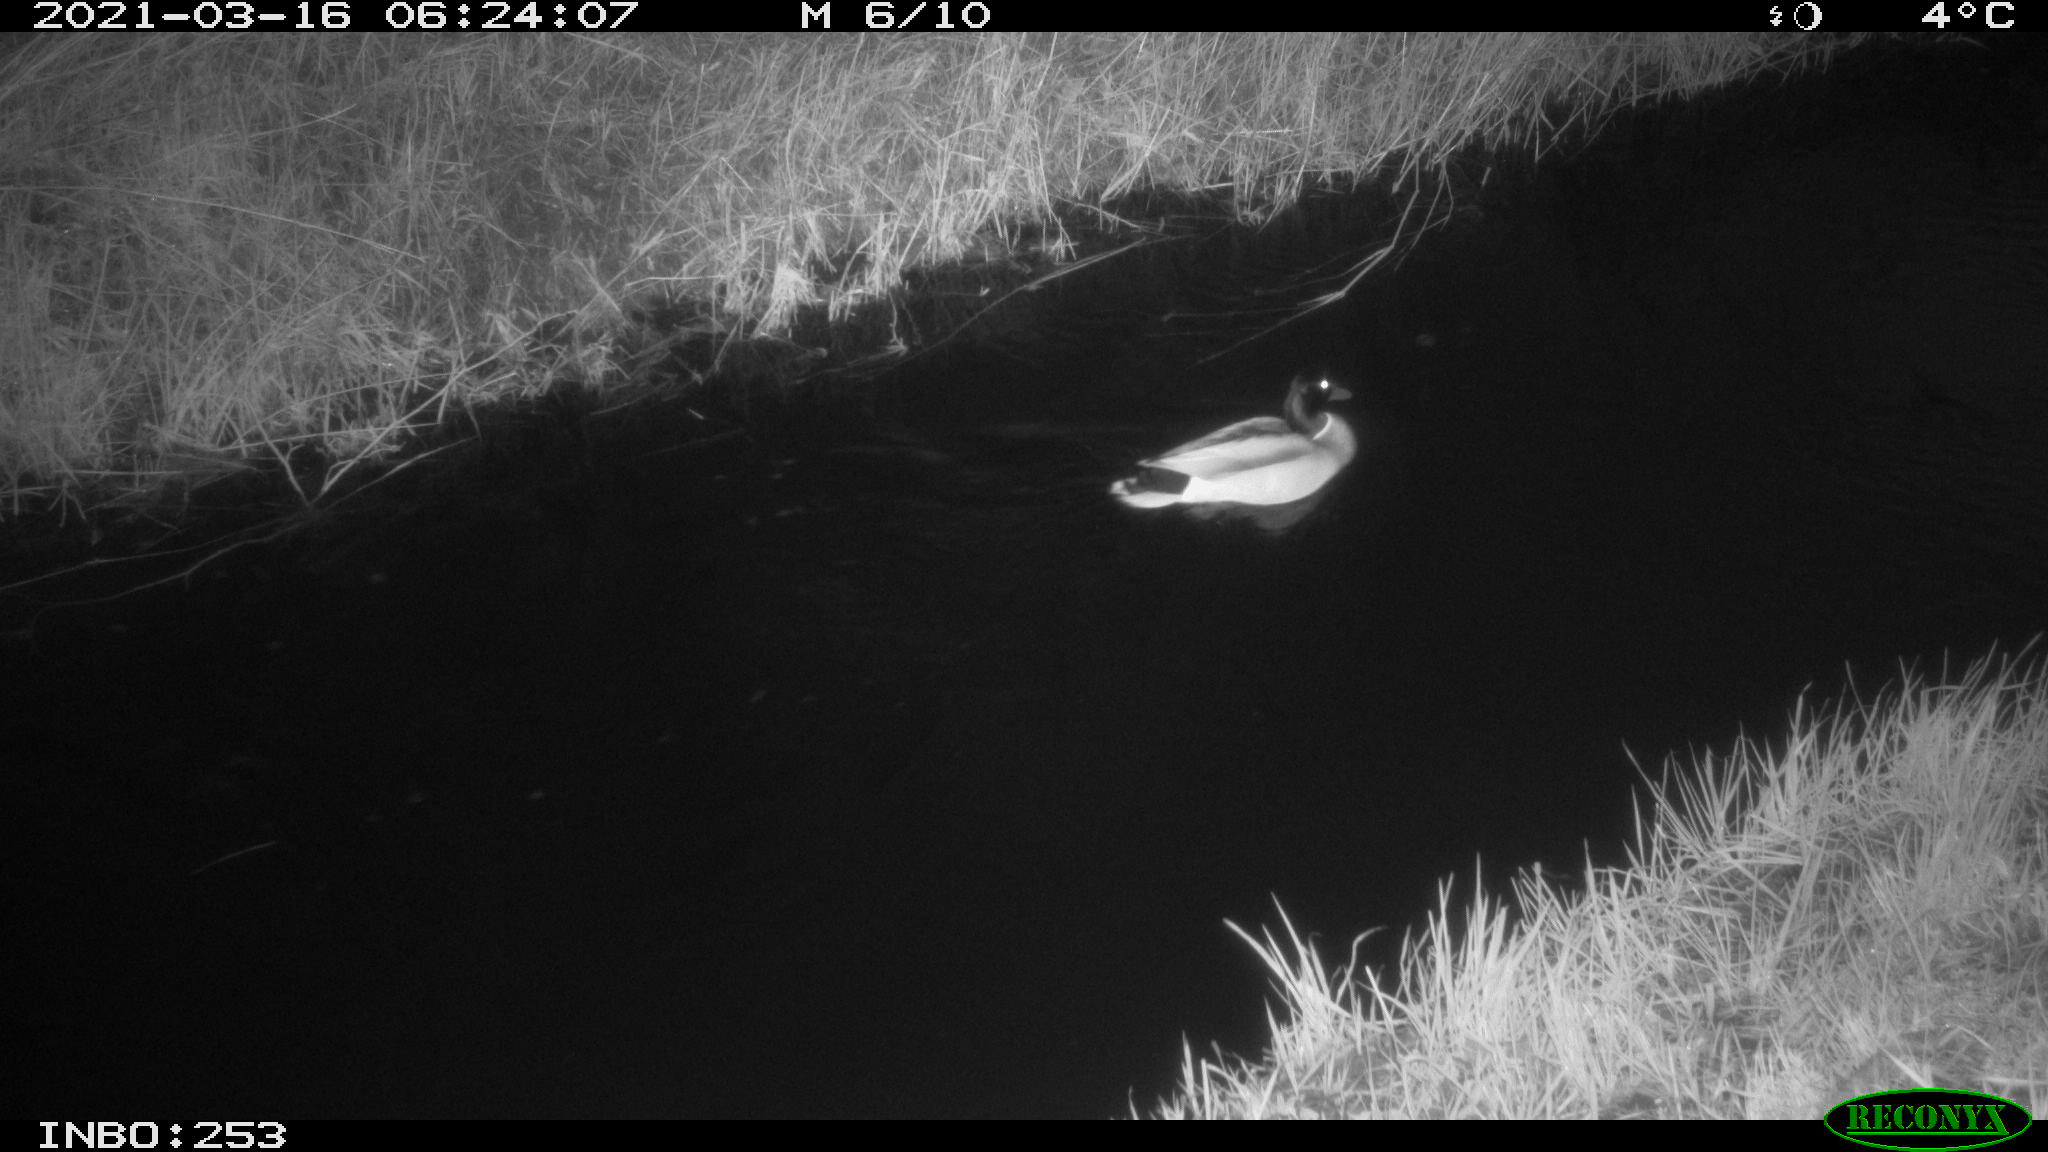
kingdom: Animalia
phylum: Chordata
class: Aves
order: Anseriformes
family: Anatidae
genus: Anas
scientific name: Anas platyrhynchos
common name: Mallard
